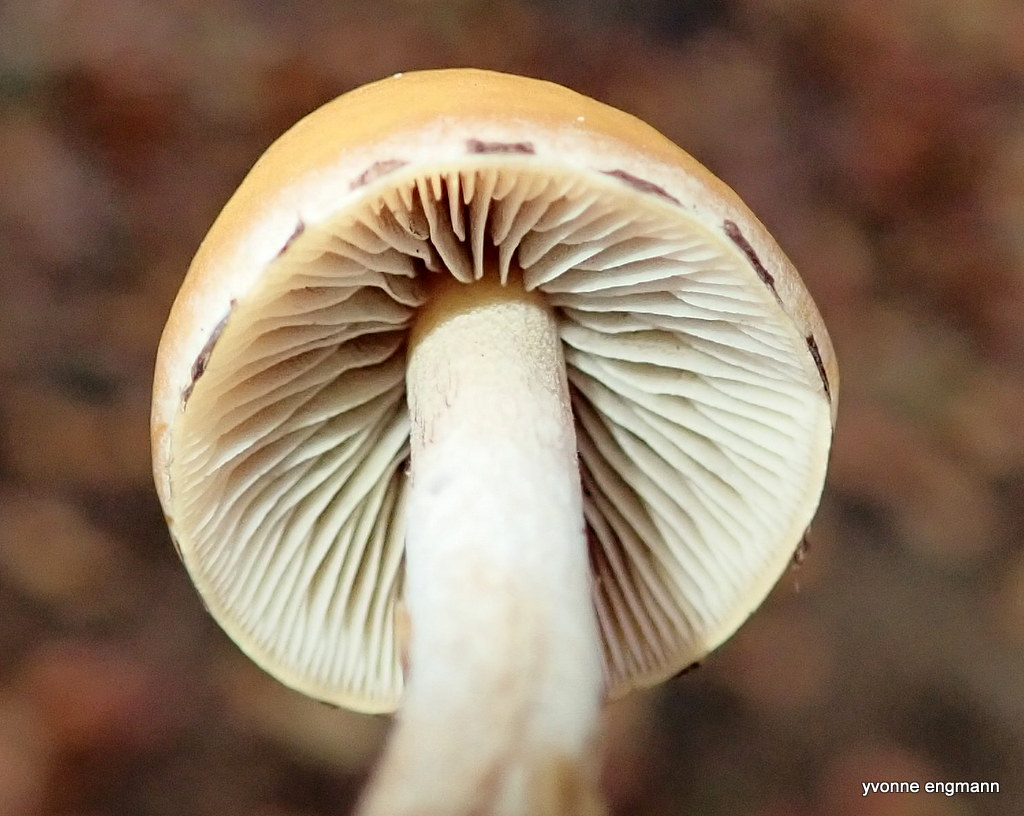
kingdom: Fungi
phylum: Basidiomycota
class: Agaricomycetes
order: Agaricales
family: Strophariaceae
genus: Hypholoma
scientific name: Hypholoma marginatum
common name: enlig svovlhat
